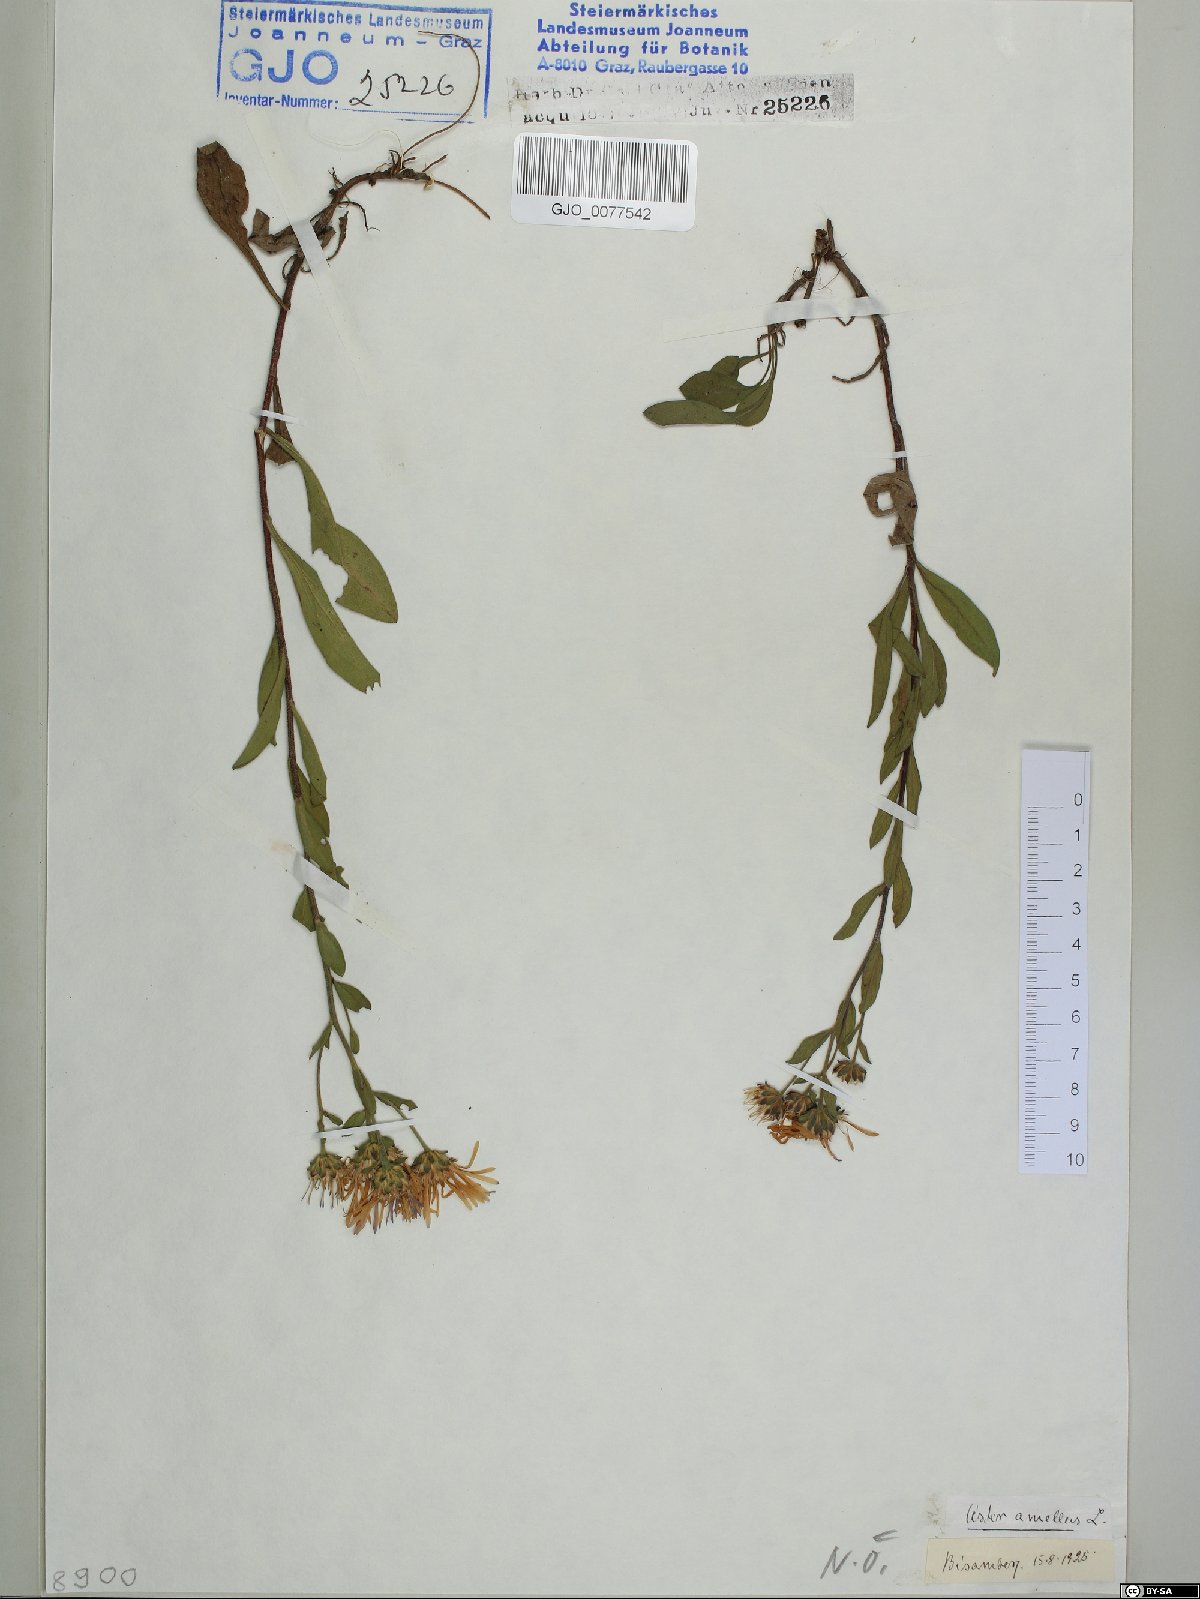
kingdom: Plantae
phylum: Tracheophyta
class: Magnoliopsida
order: Asterales
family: Asteraceae
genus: Aster
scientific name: Aster amellus
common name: European michaelmas daisy
